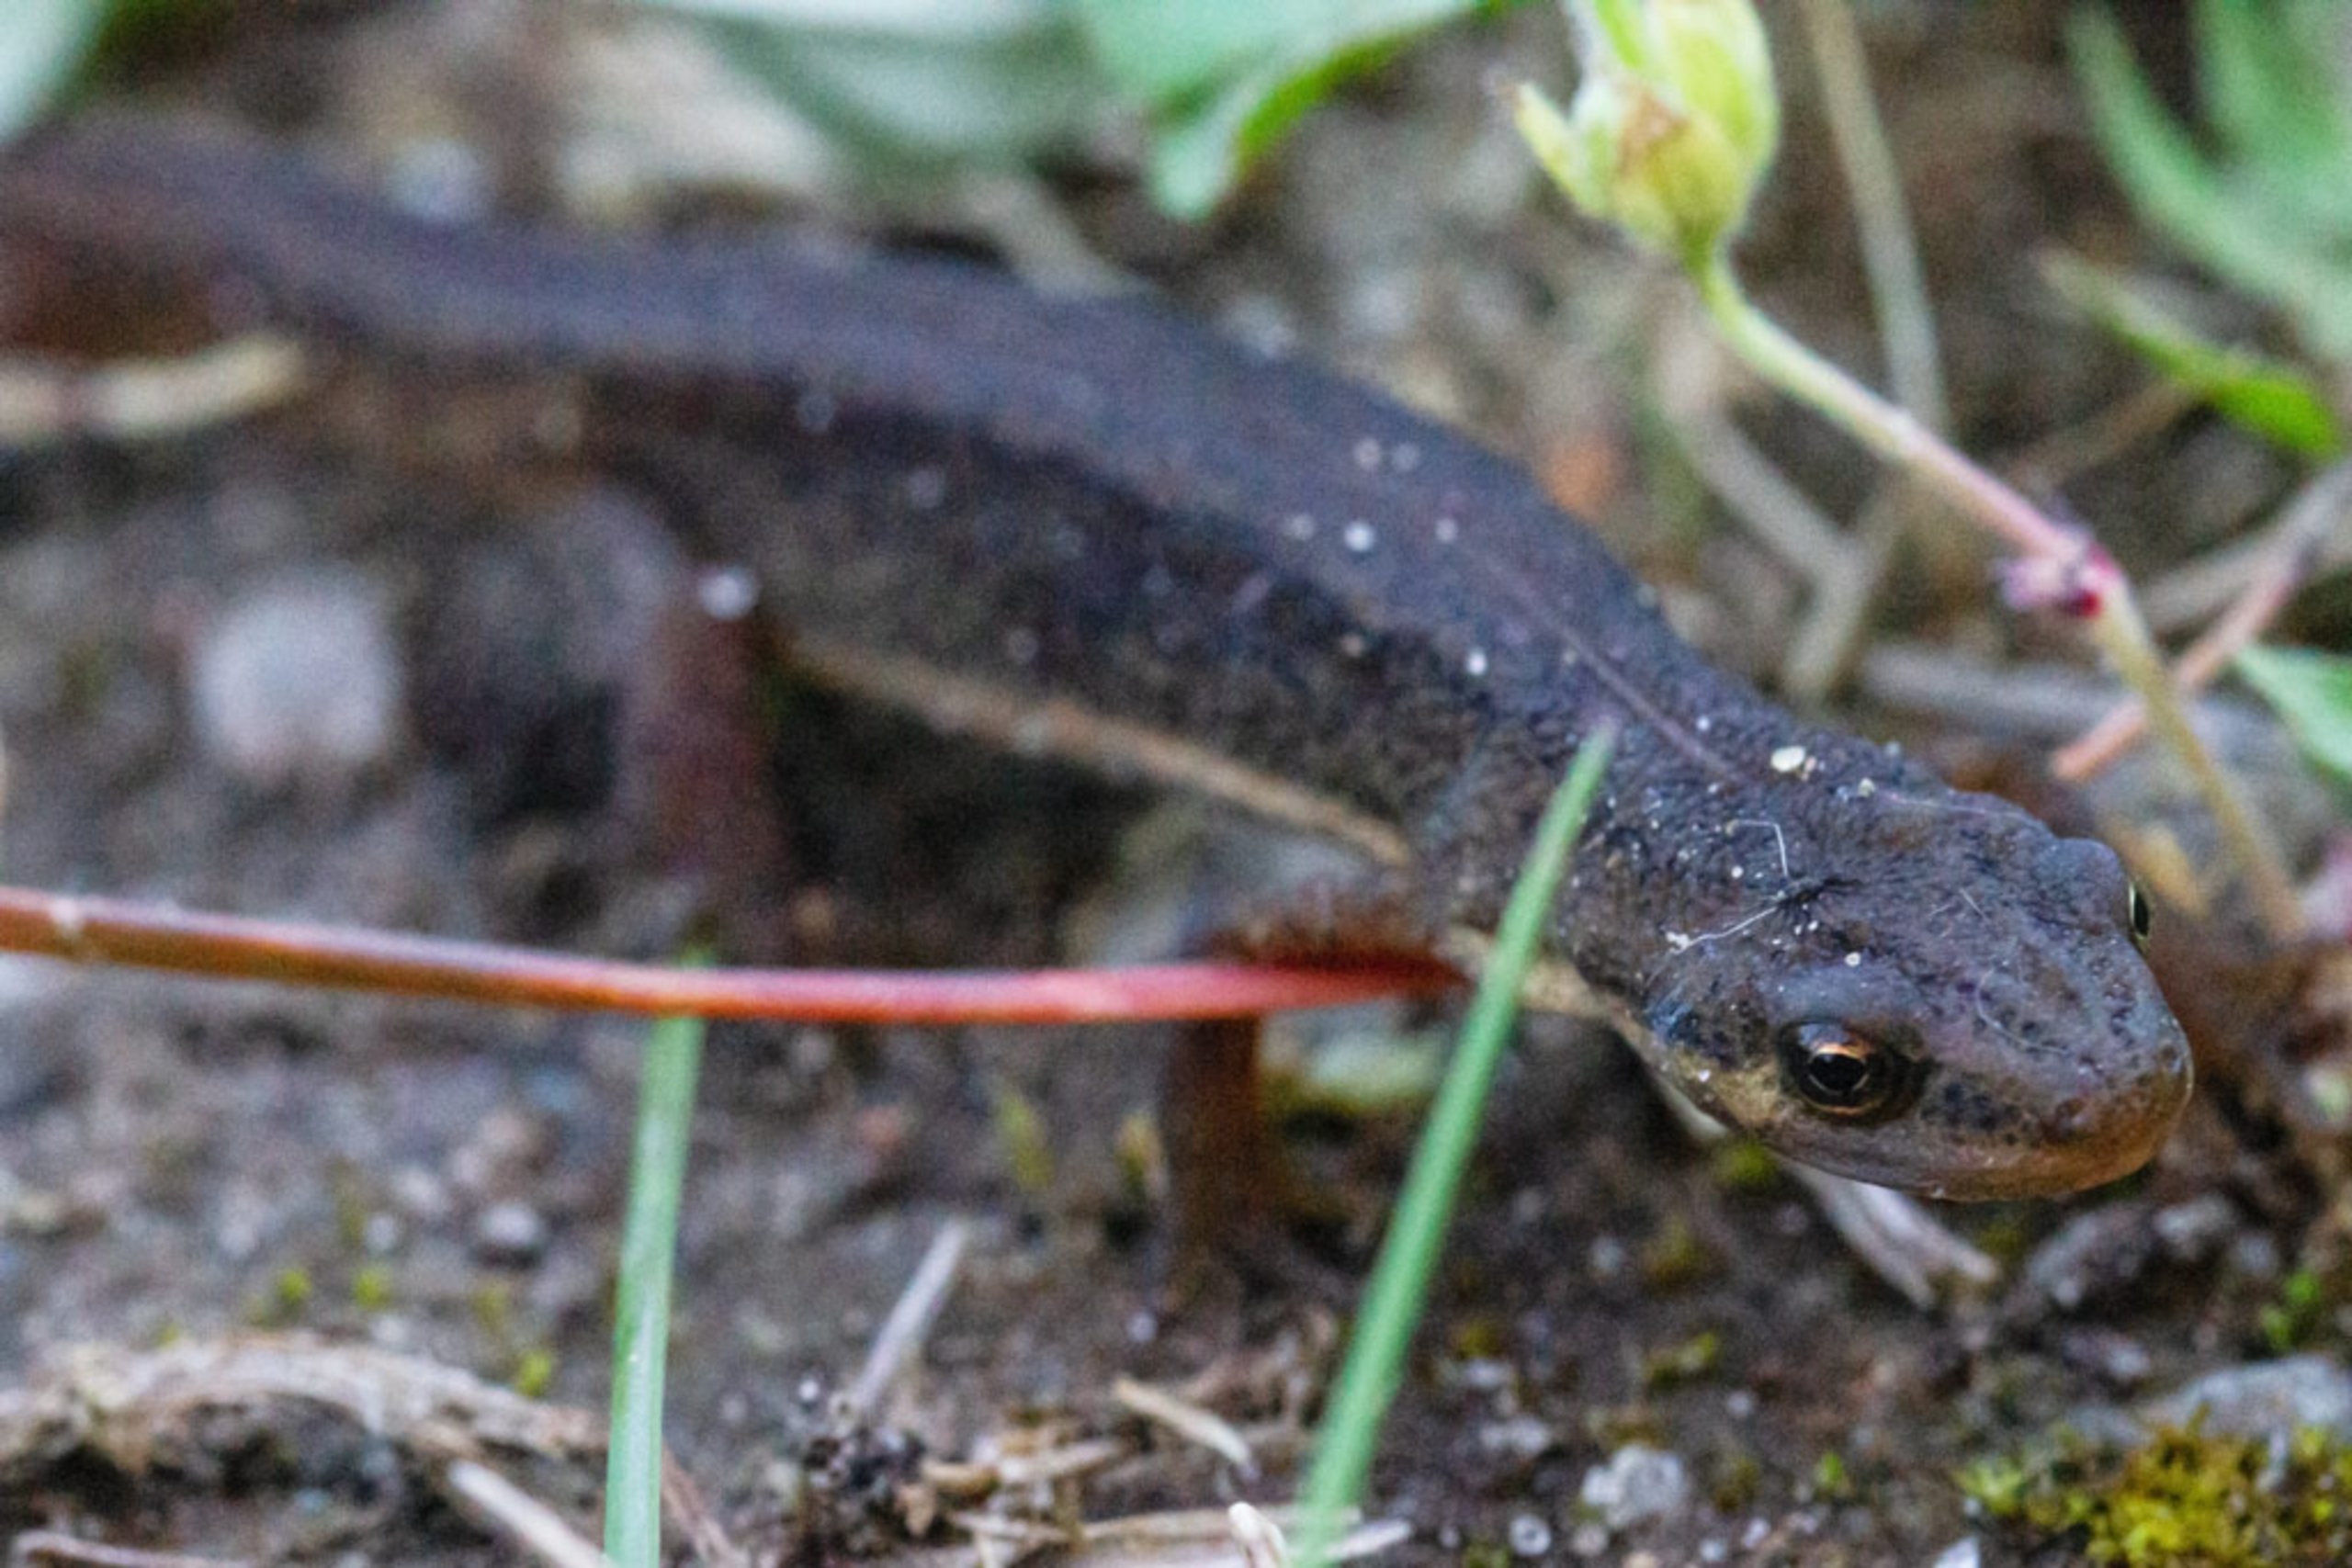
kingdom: Animalia
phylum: Chordata
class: Amphibia
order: Caudata
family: Salamandridae
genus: Lissotriton
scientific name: Lissotriton vulgaris
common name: Lille vandsalamander
